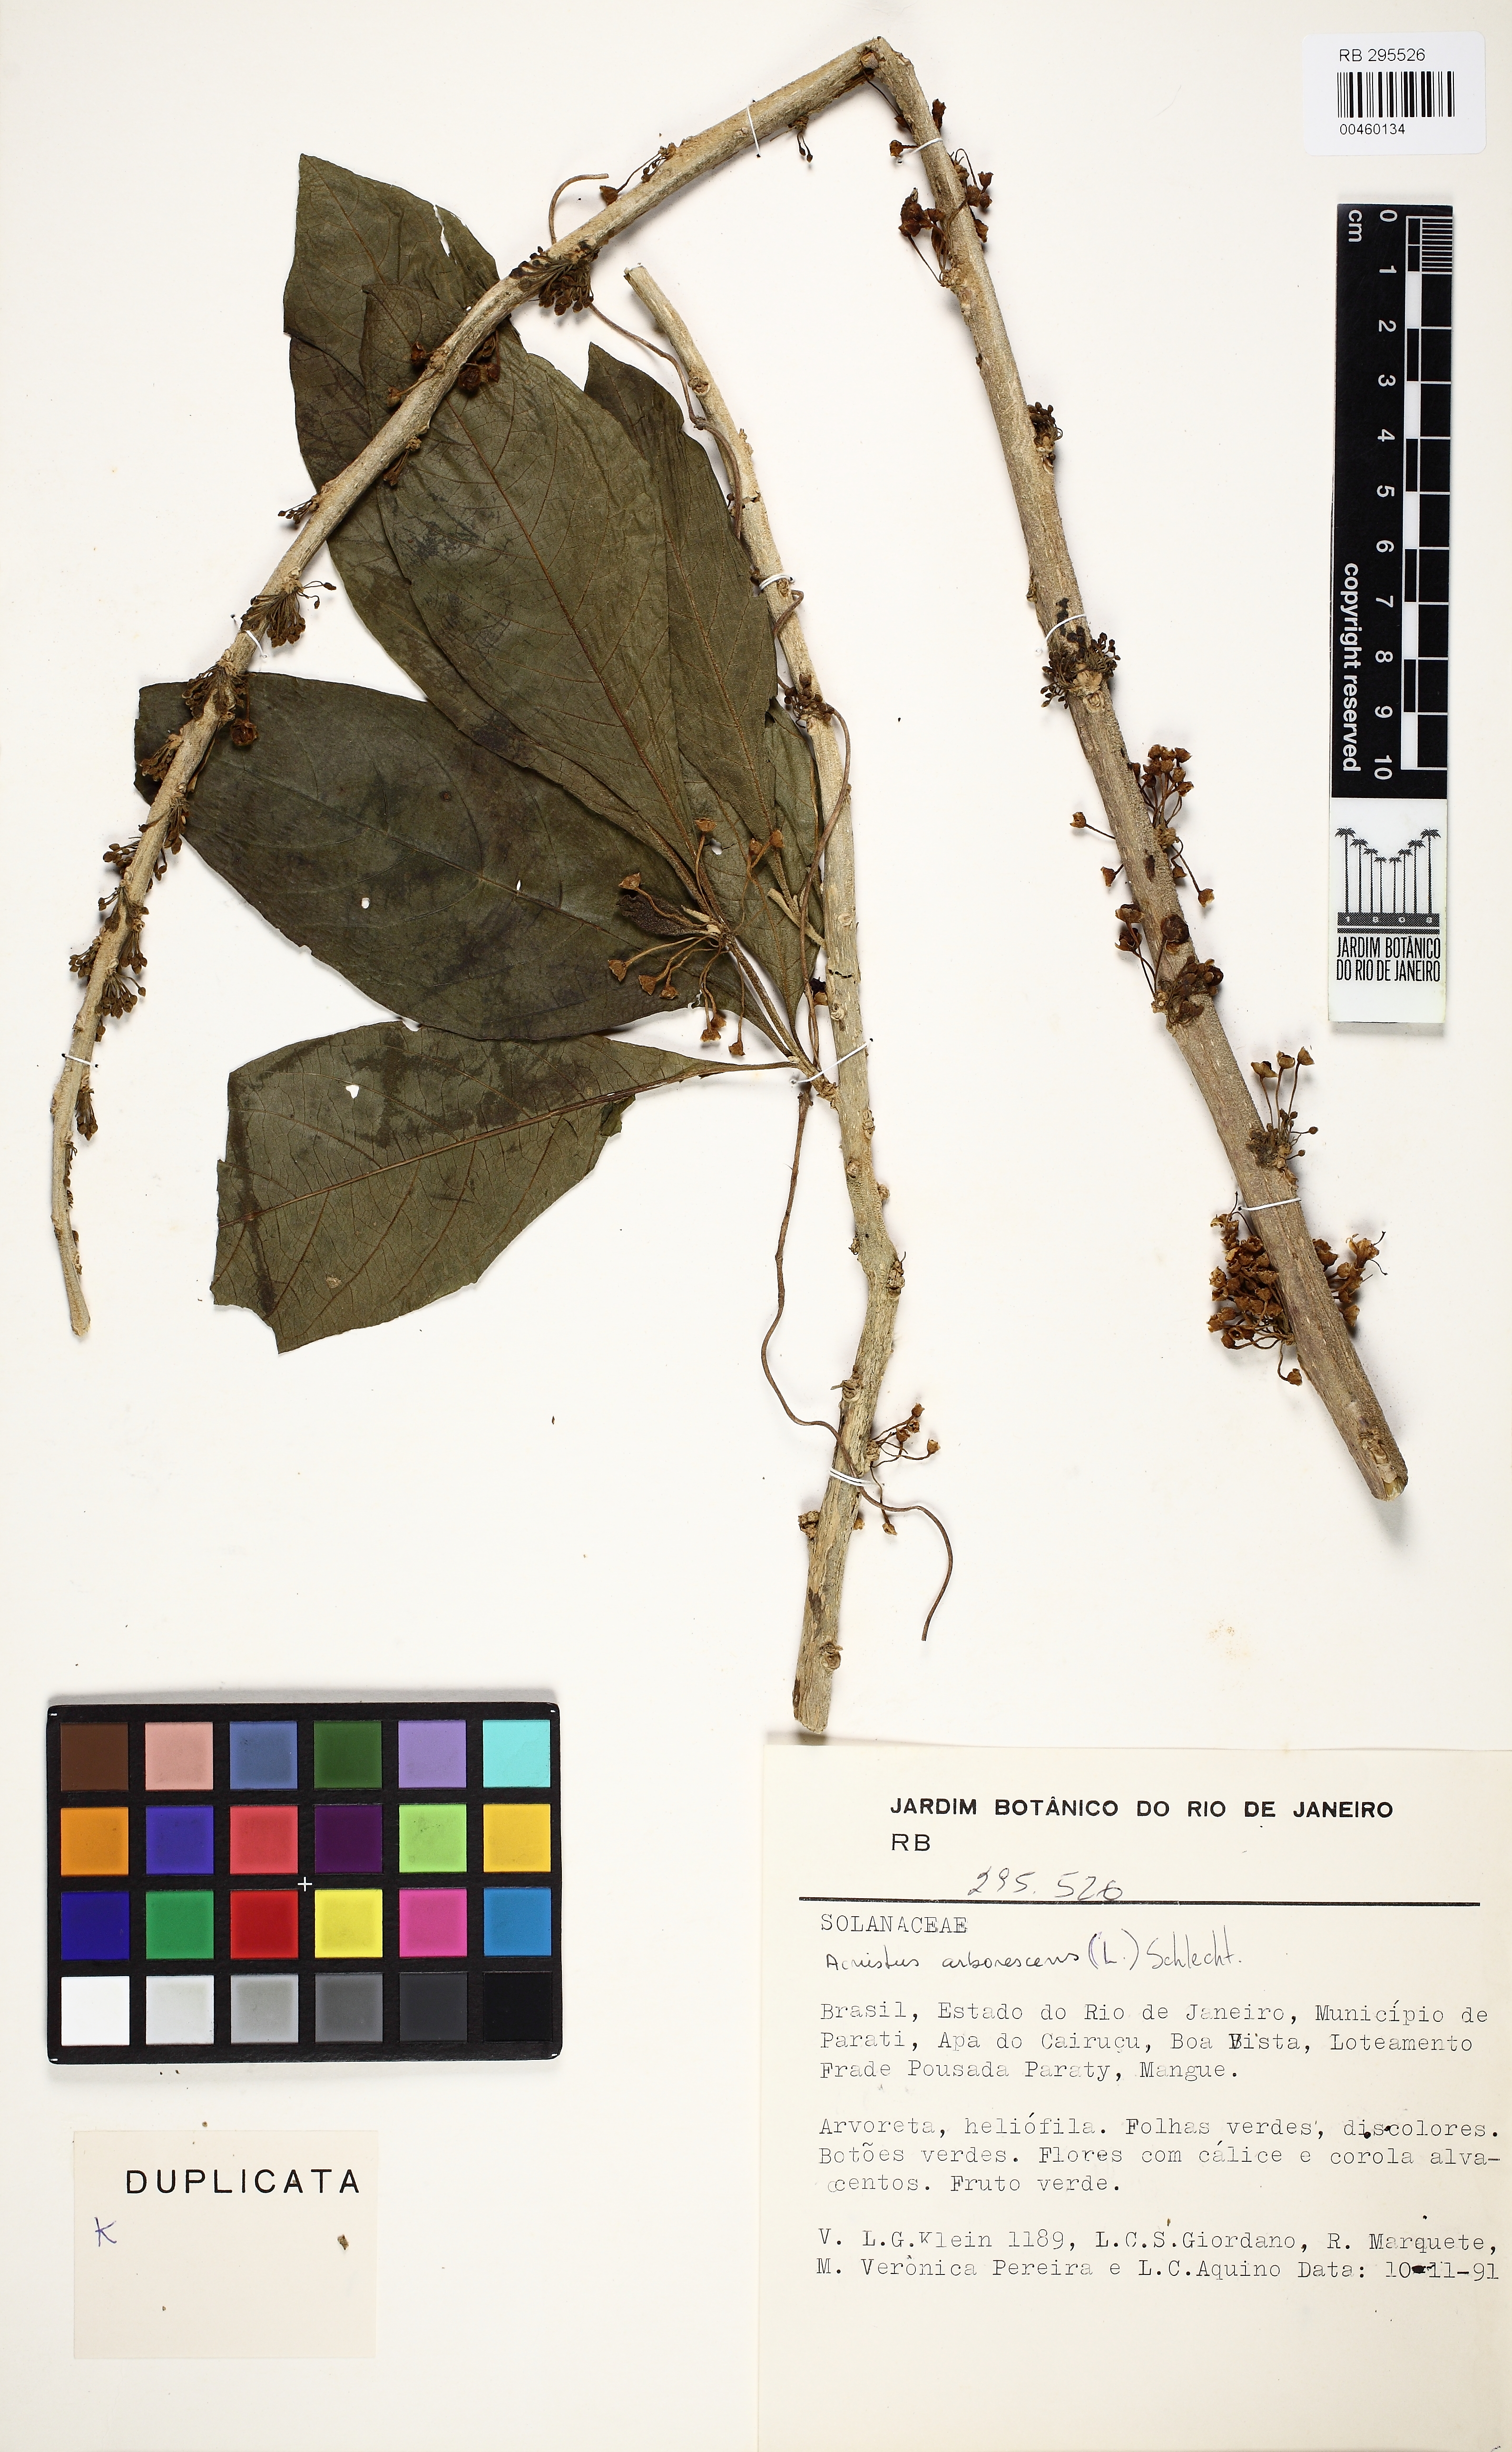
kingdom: Plantae
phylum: Tracheophyta
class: Magnoliopsida
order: Solanales
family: Solanaceae
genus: Iochroma
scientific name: Iochroma arborescens
